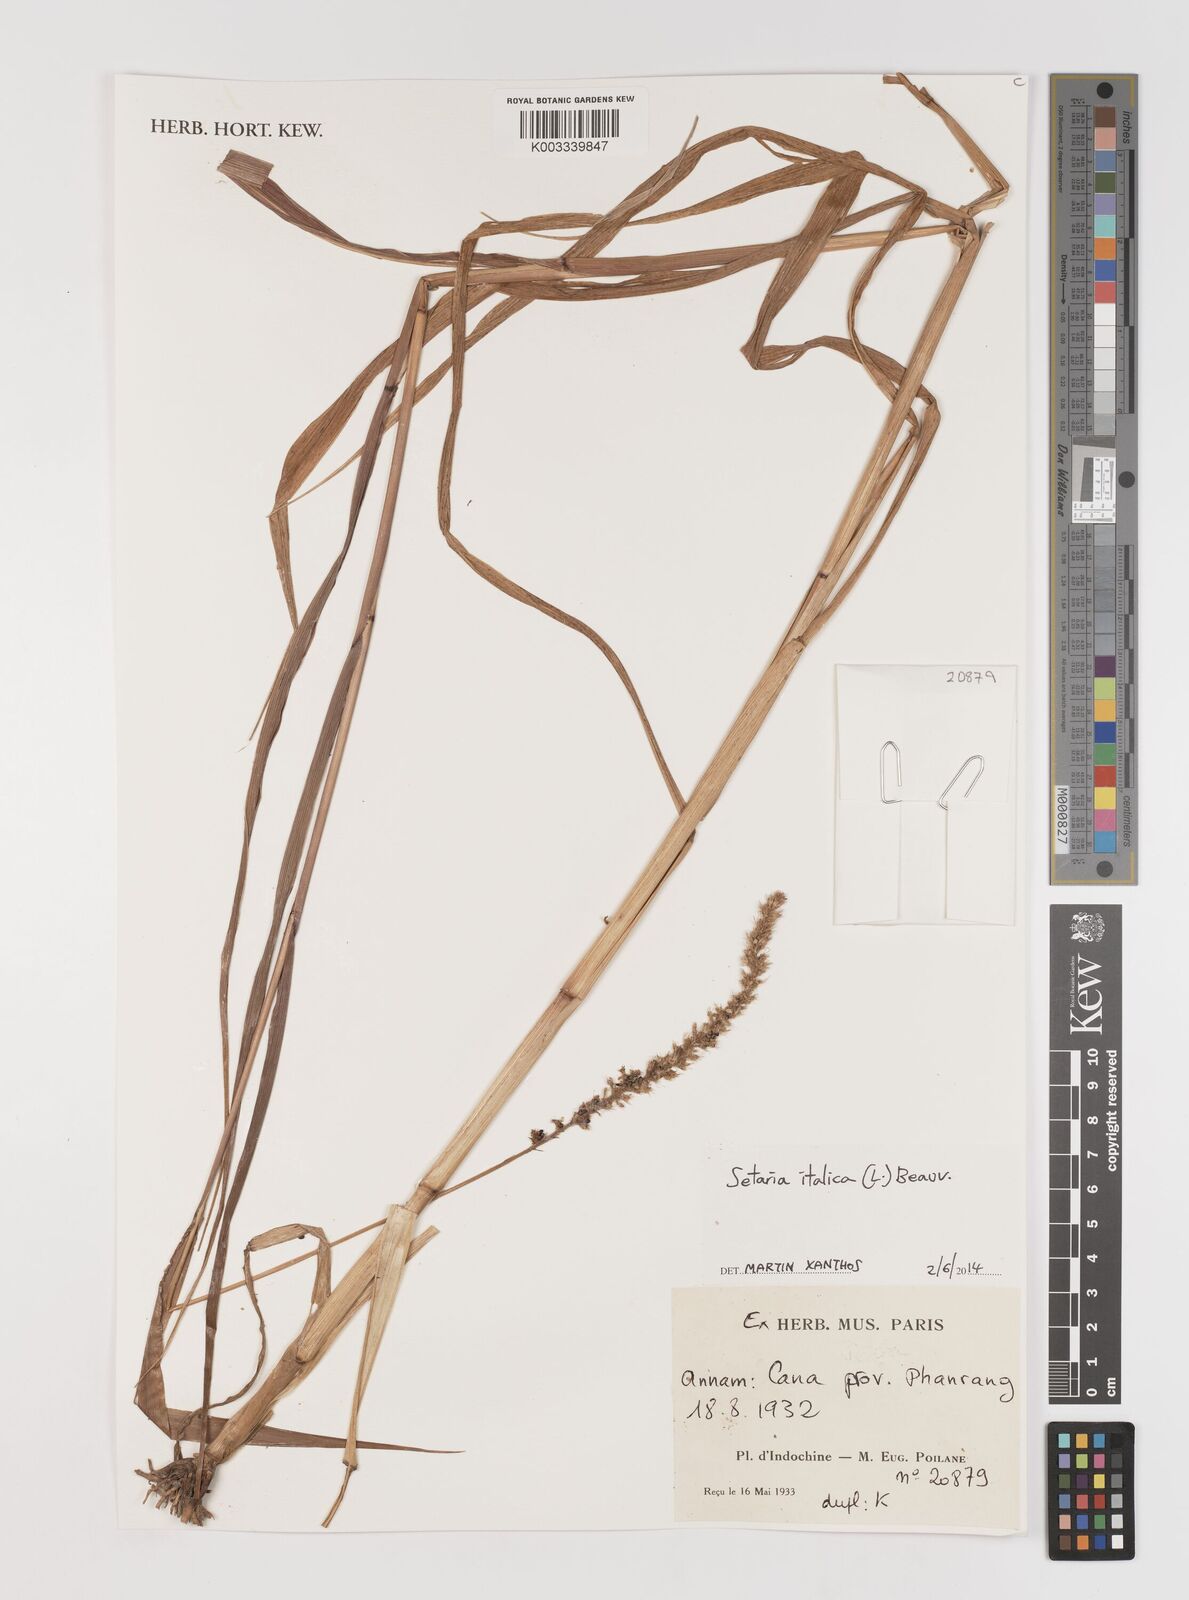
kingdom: Plantae
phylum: Tracheophyta
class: Liliopsida
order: Poales
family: Poaceae
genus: Setaria
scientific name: Setaria italica
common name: Foxtail bristle-grass
